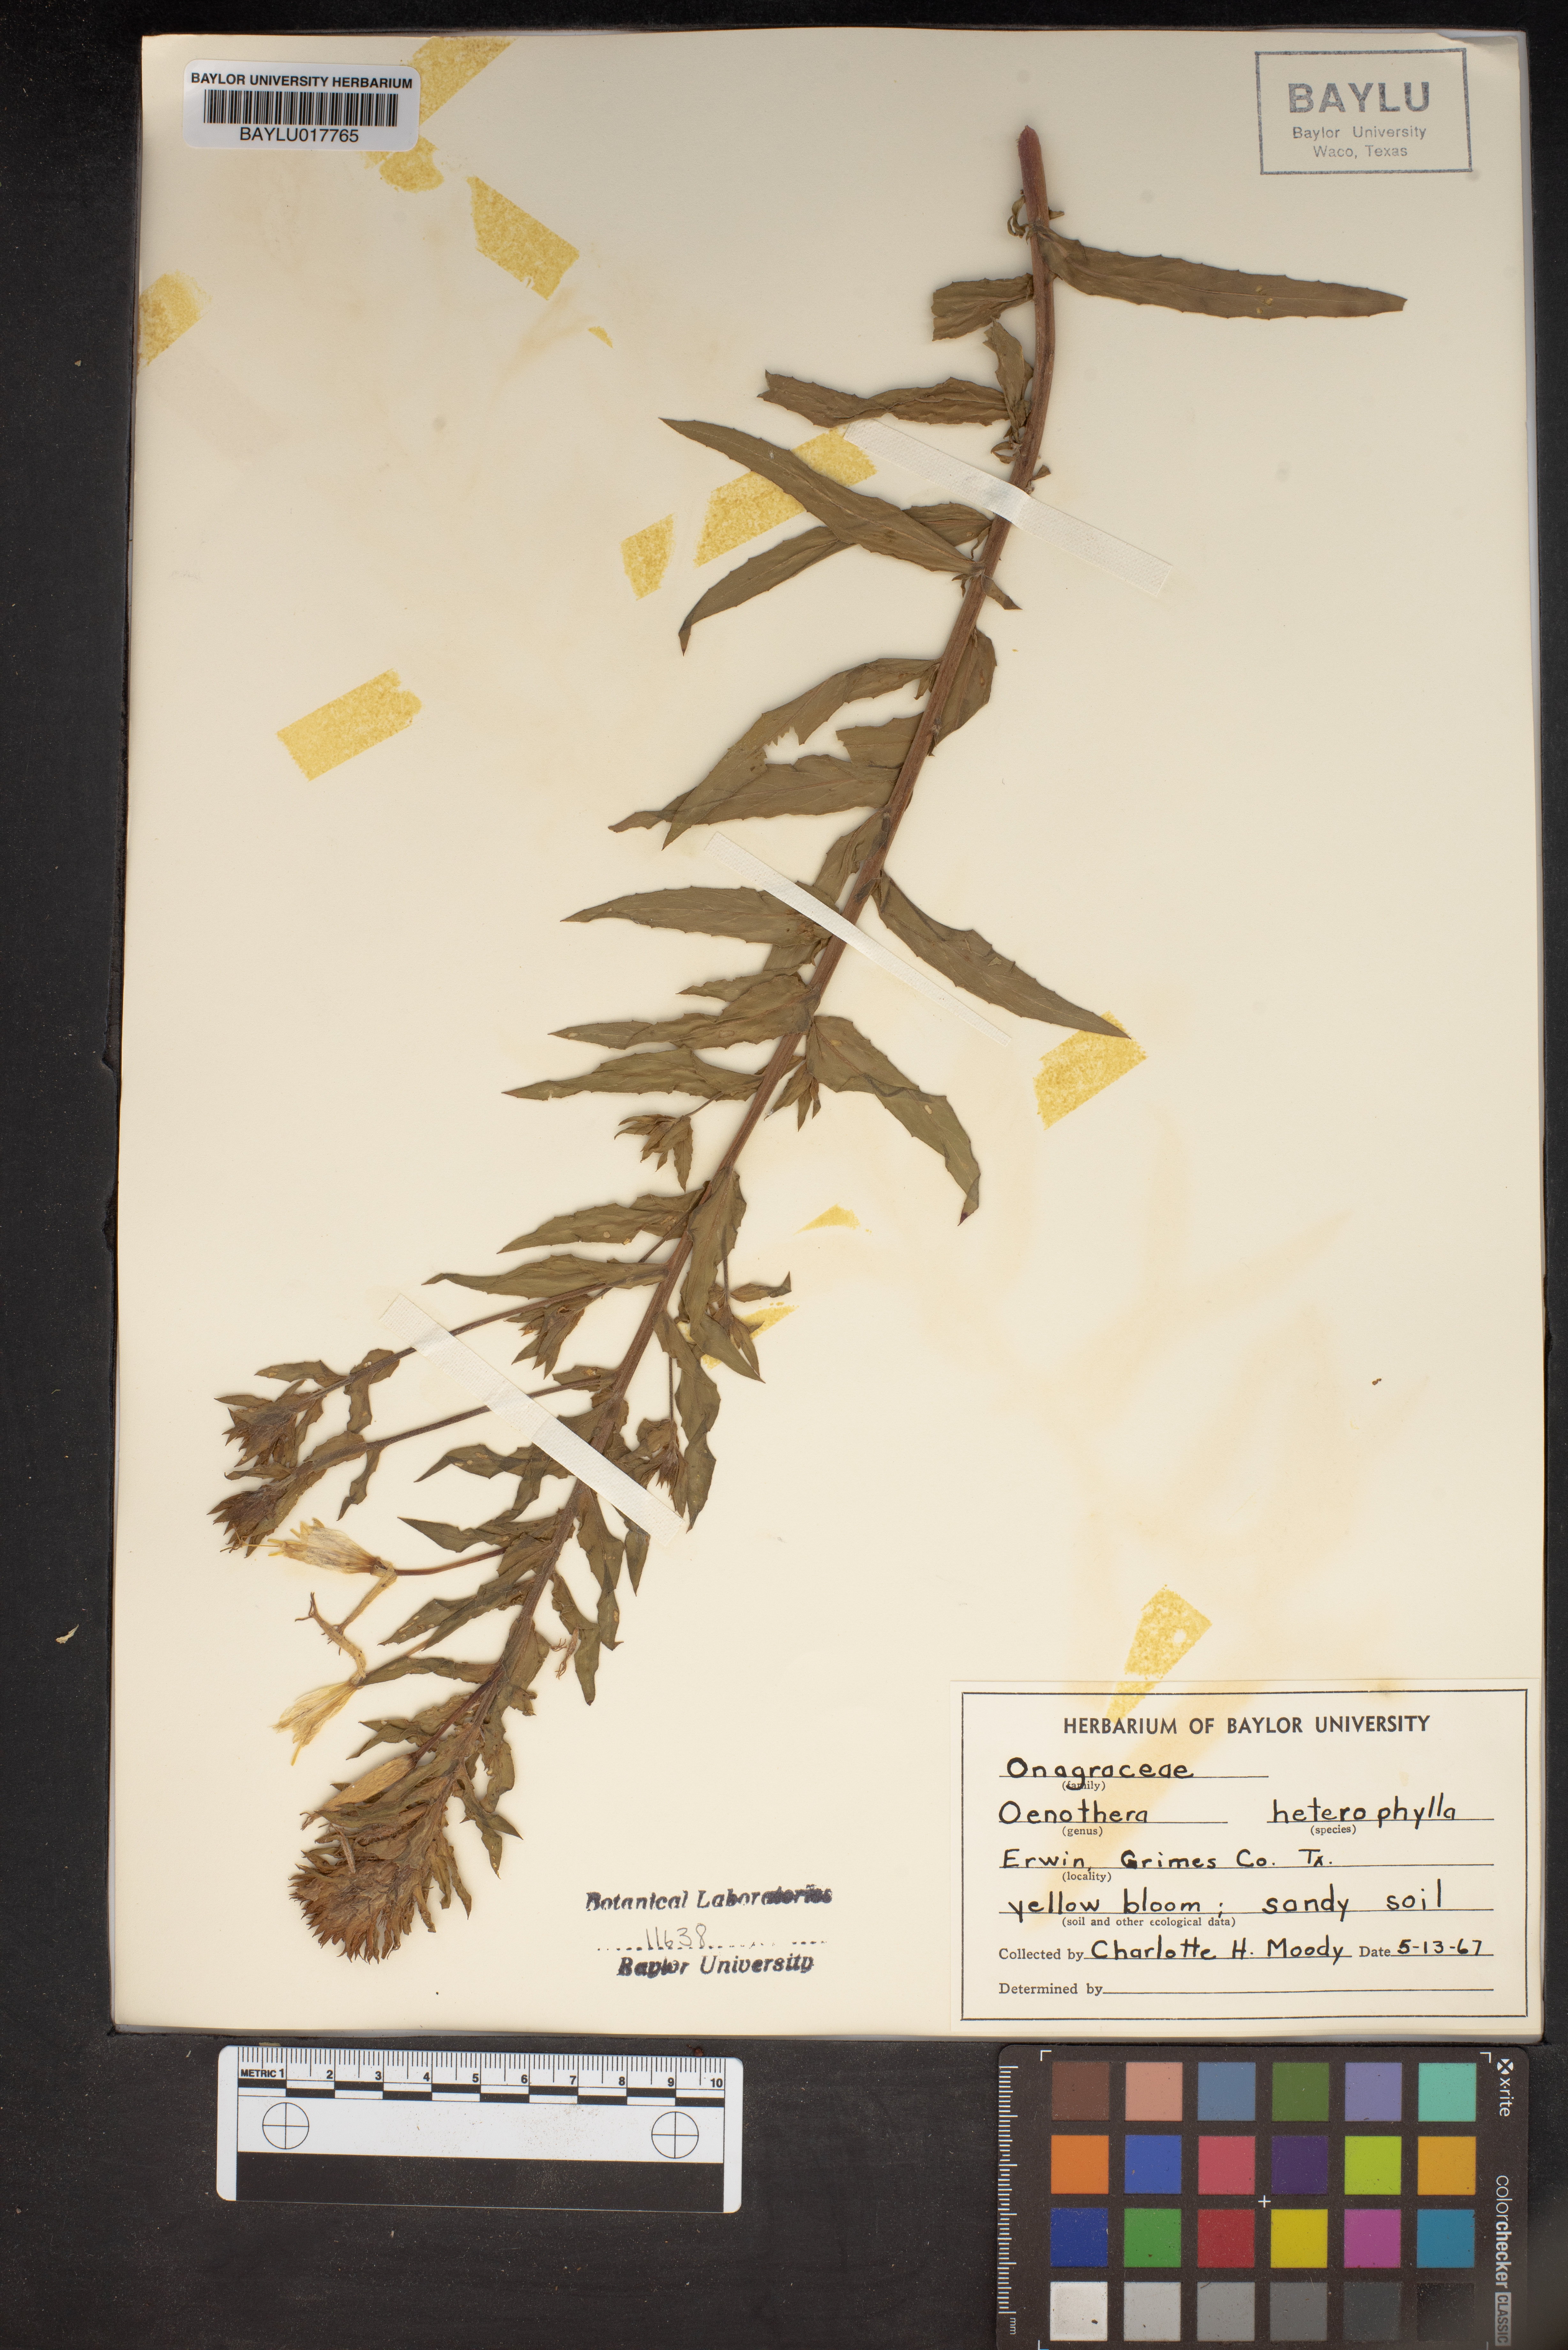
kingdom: Plantae
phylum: Tracheophyta
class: Magnoliopsida
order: Myrtales
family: Onagraceae
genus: Camissonia
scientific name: Camissonia dentata
